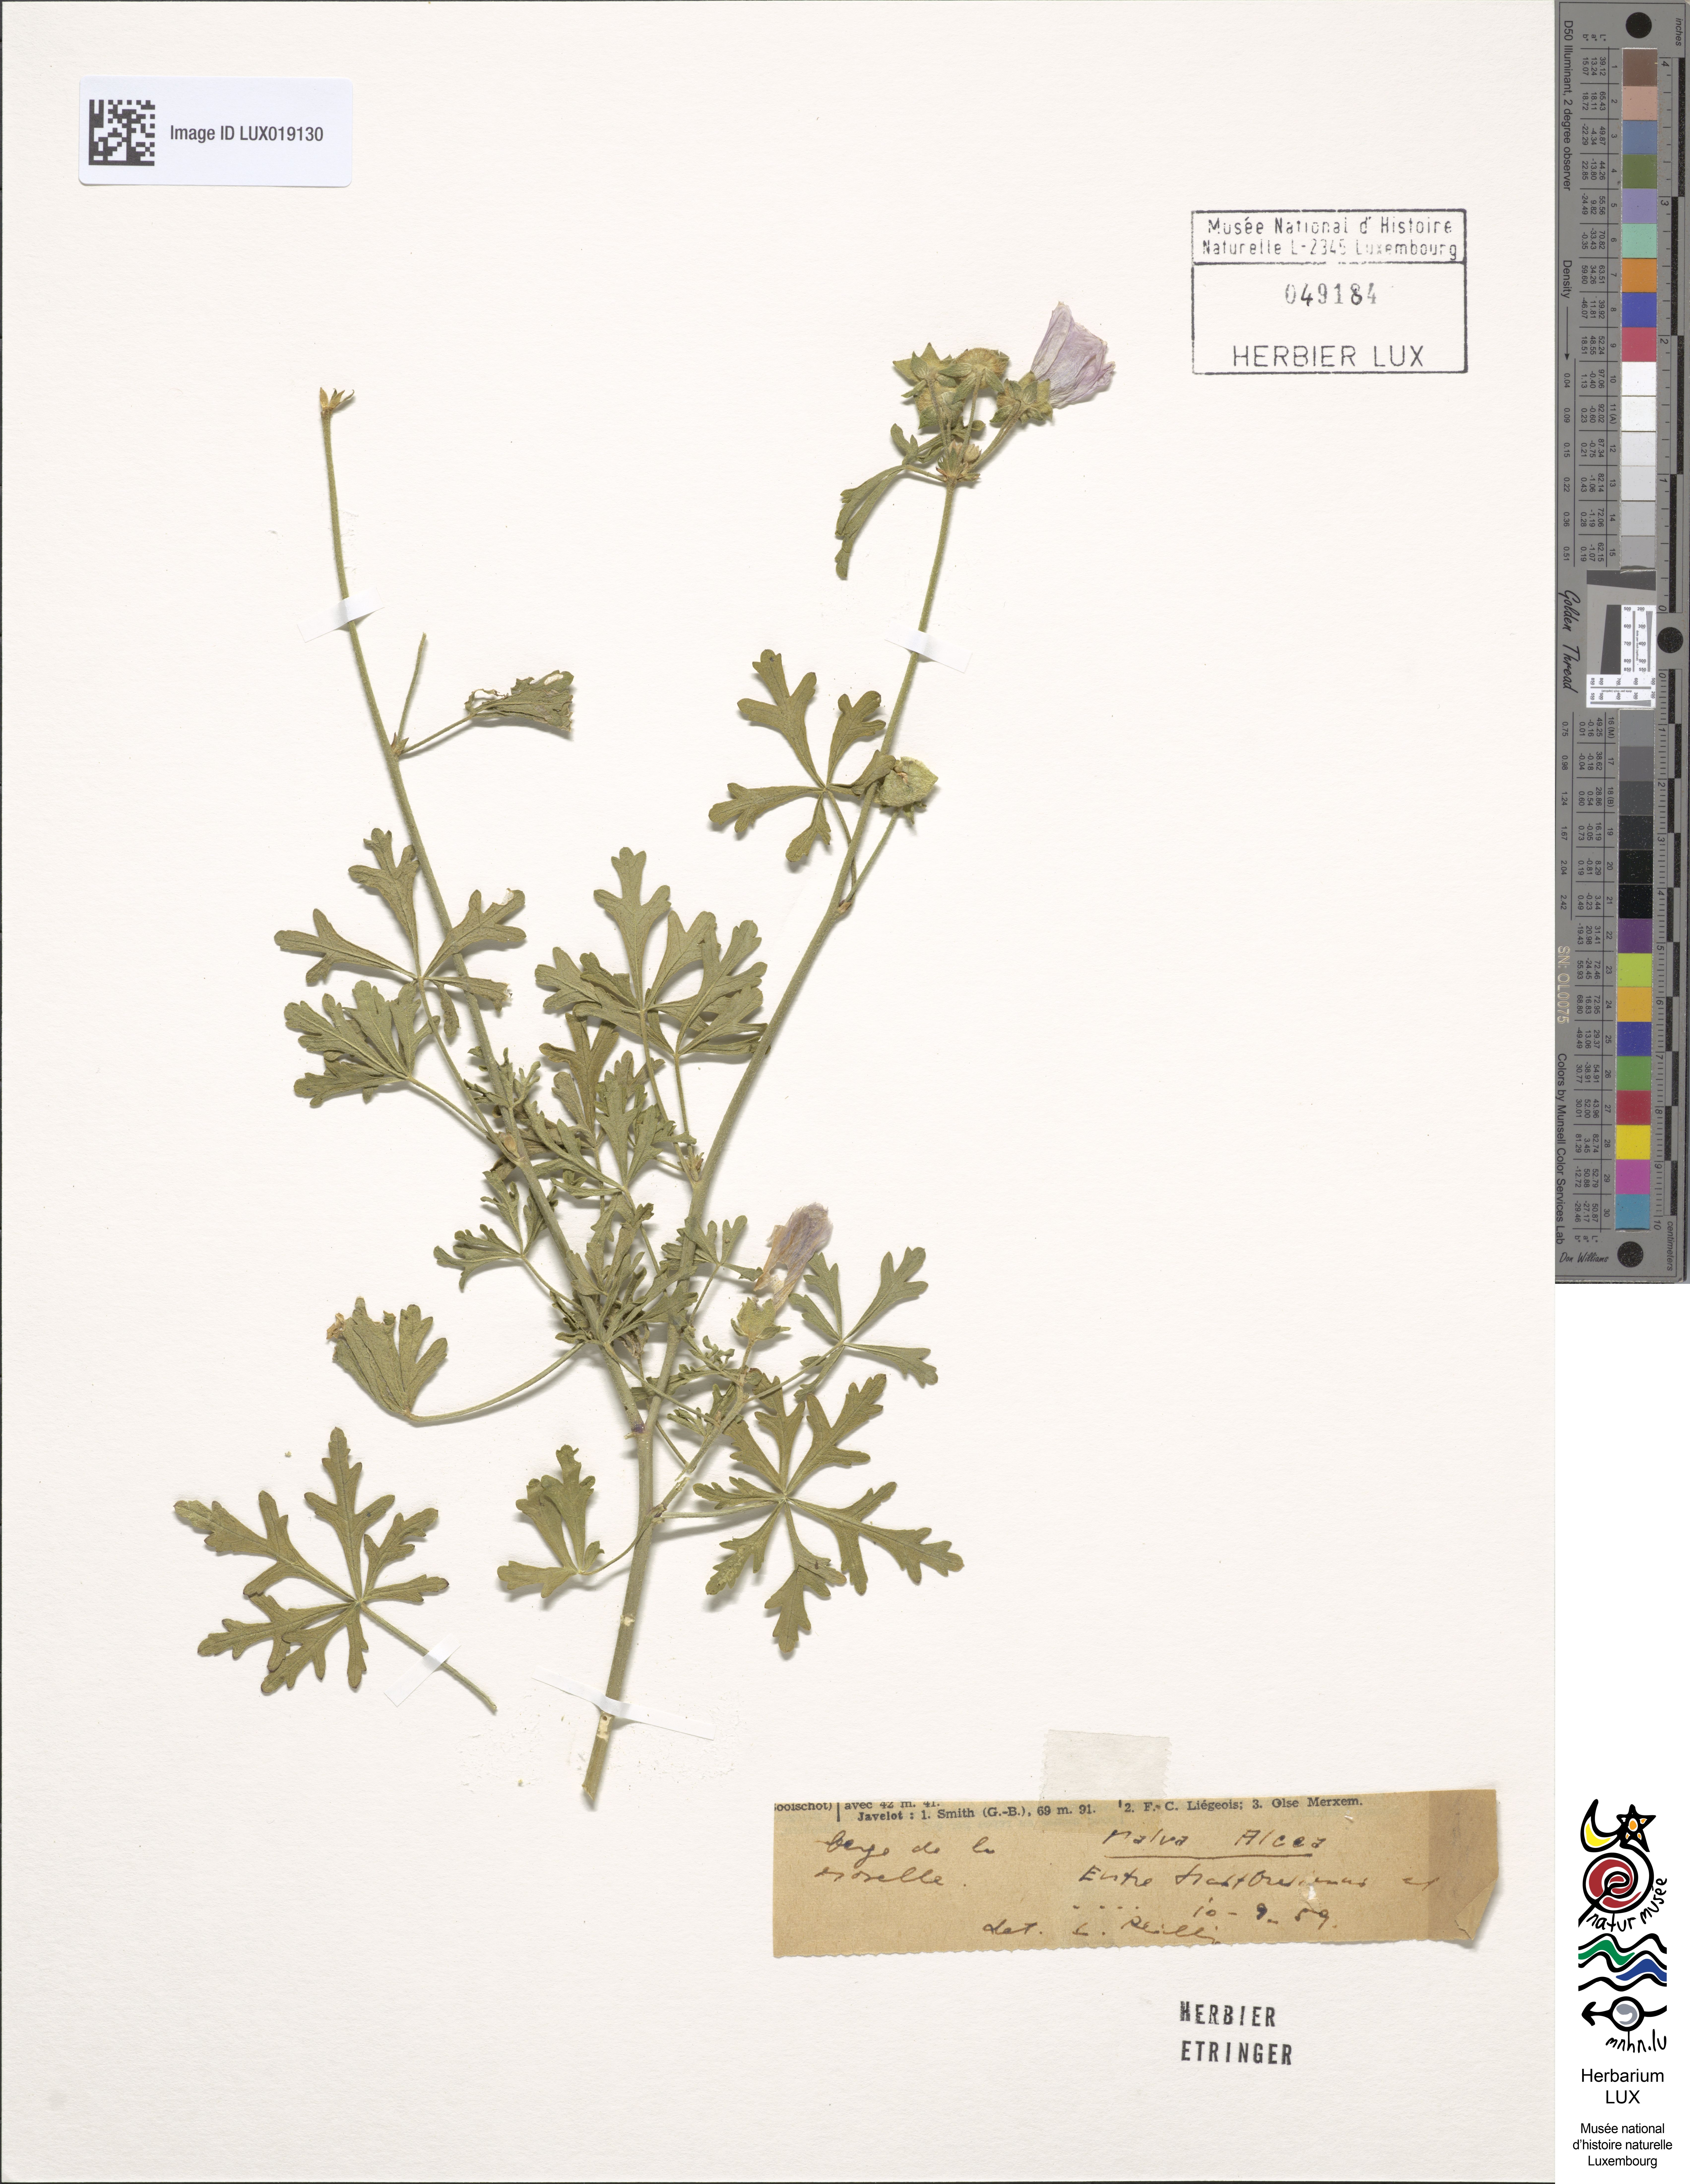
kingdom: Plantae
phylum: Tracheophyta
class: Magnoliopsida
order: Malvales
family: Malvaceae
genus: Malva
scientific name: Malva alcea
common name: Greater musk-mallow
